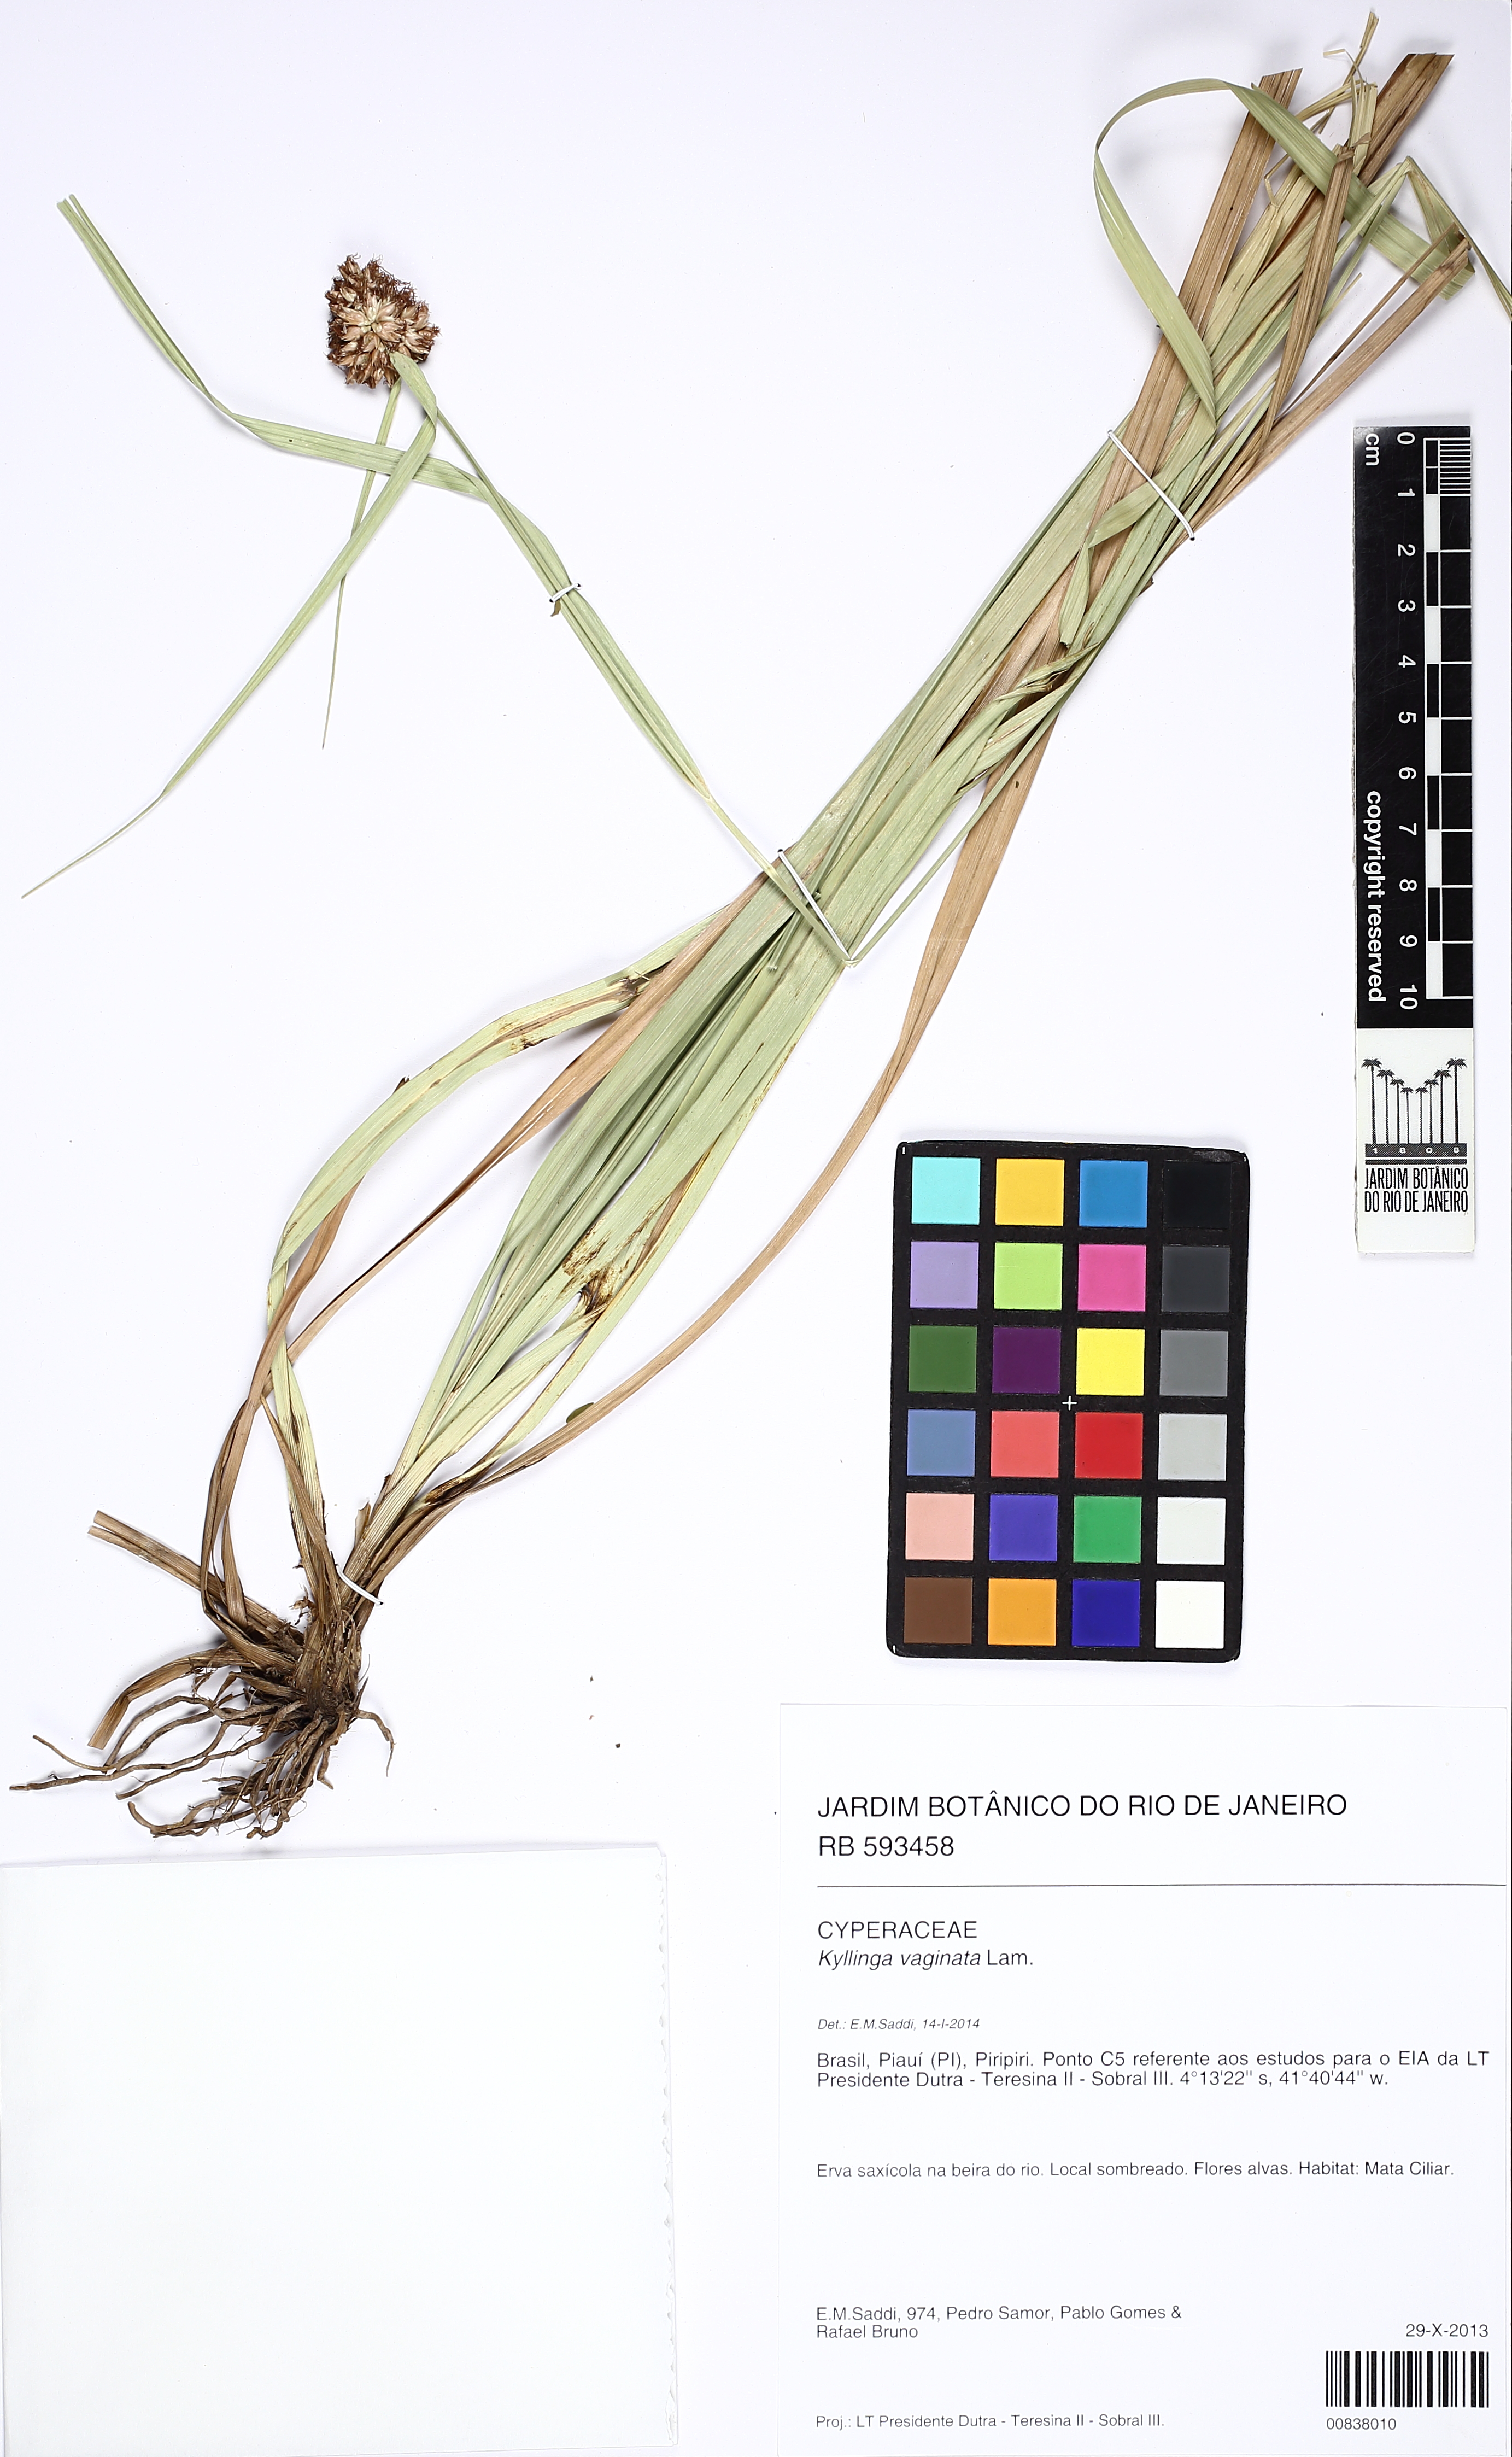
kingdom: Plantae
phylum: Tracheophyta
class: Liliopsida
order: Poales
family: Cyperaceae
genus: Rhynchospora
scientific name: Rhynchospora
